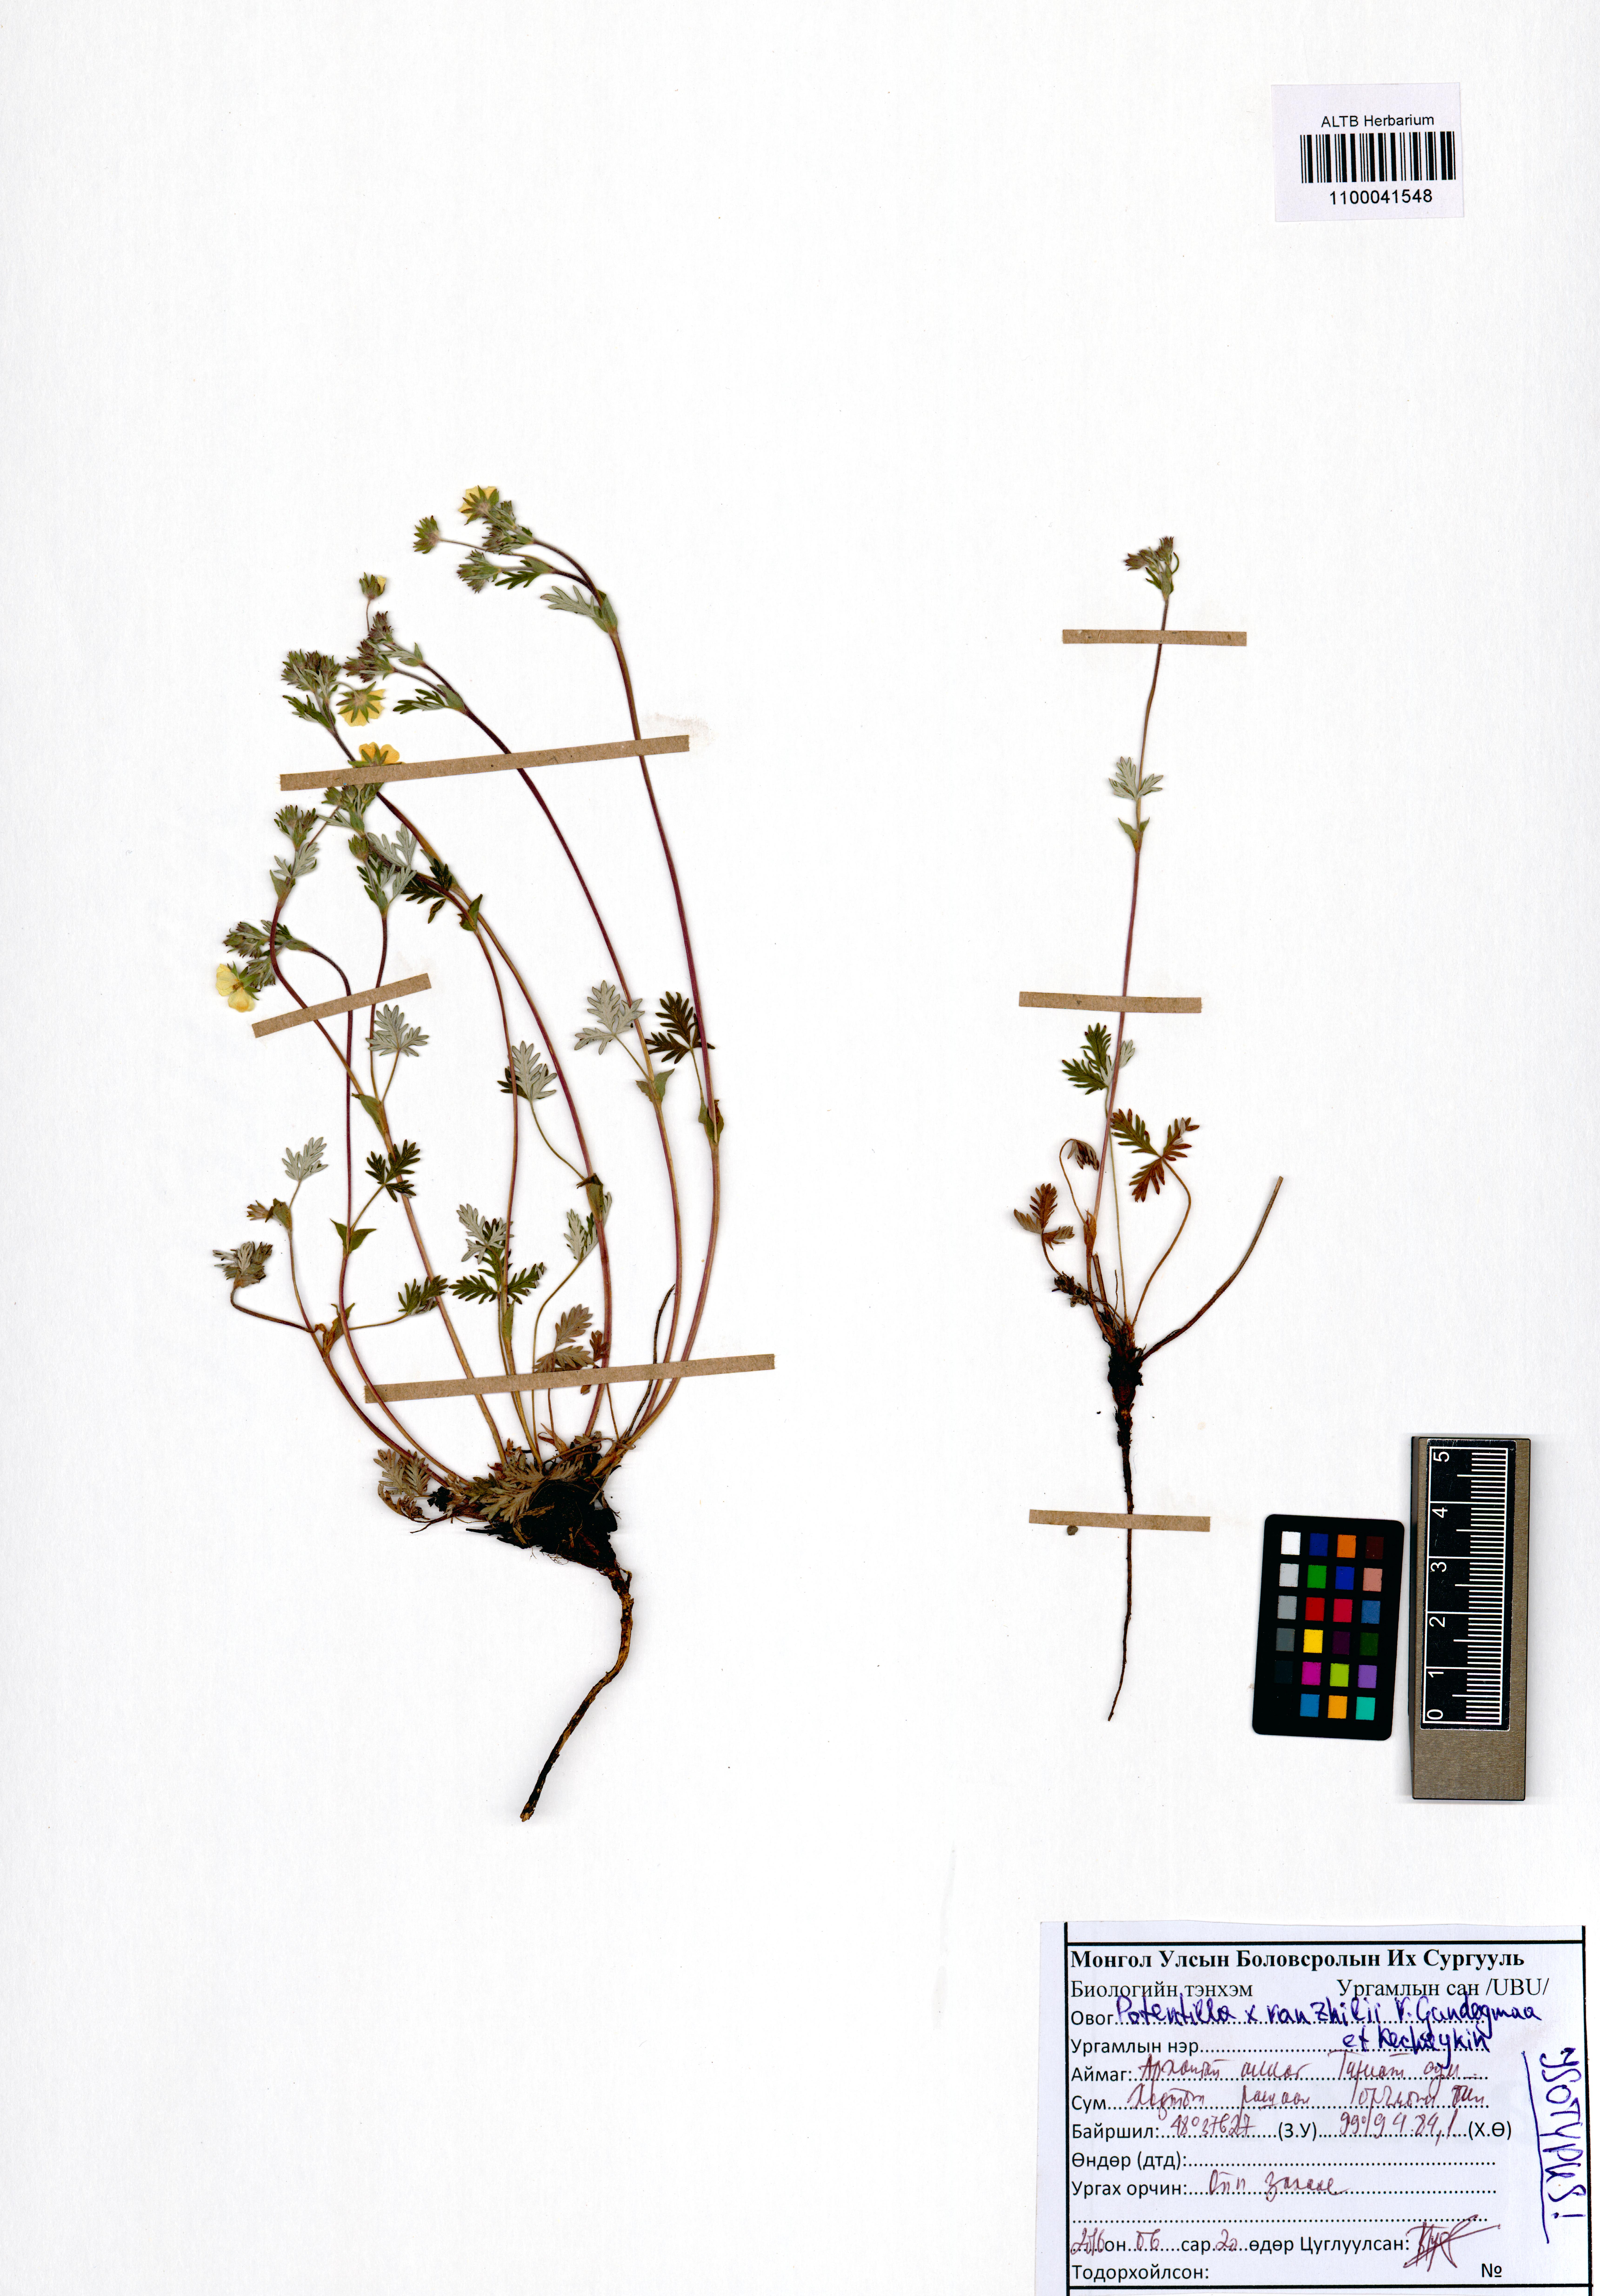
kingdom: Plantae
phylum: Tracheophyta
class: Magnoliopsida
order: Rosales
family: Rosaceae
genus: Potentilla
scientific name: Potentilla vanzhilii
